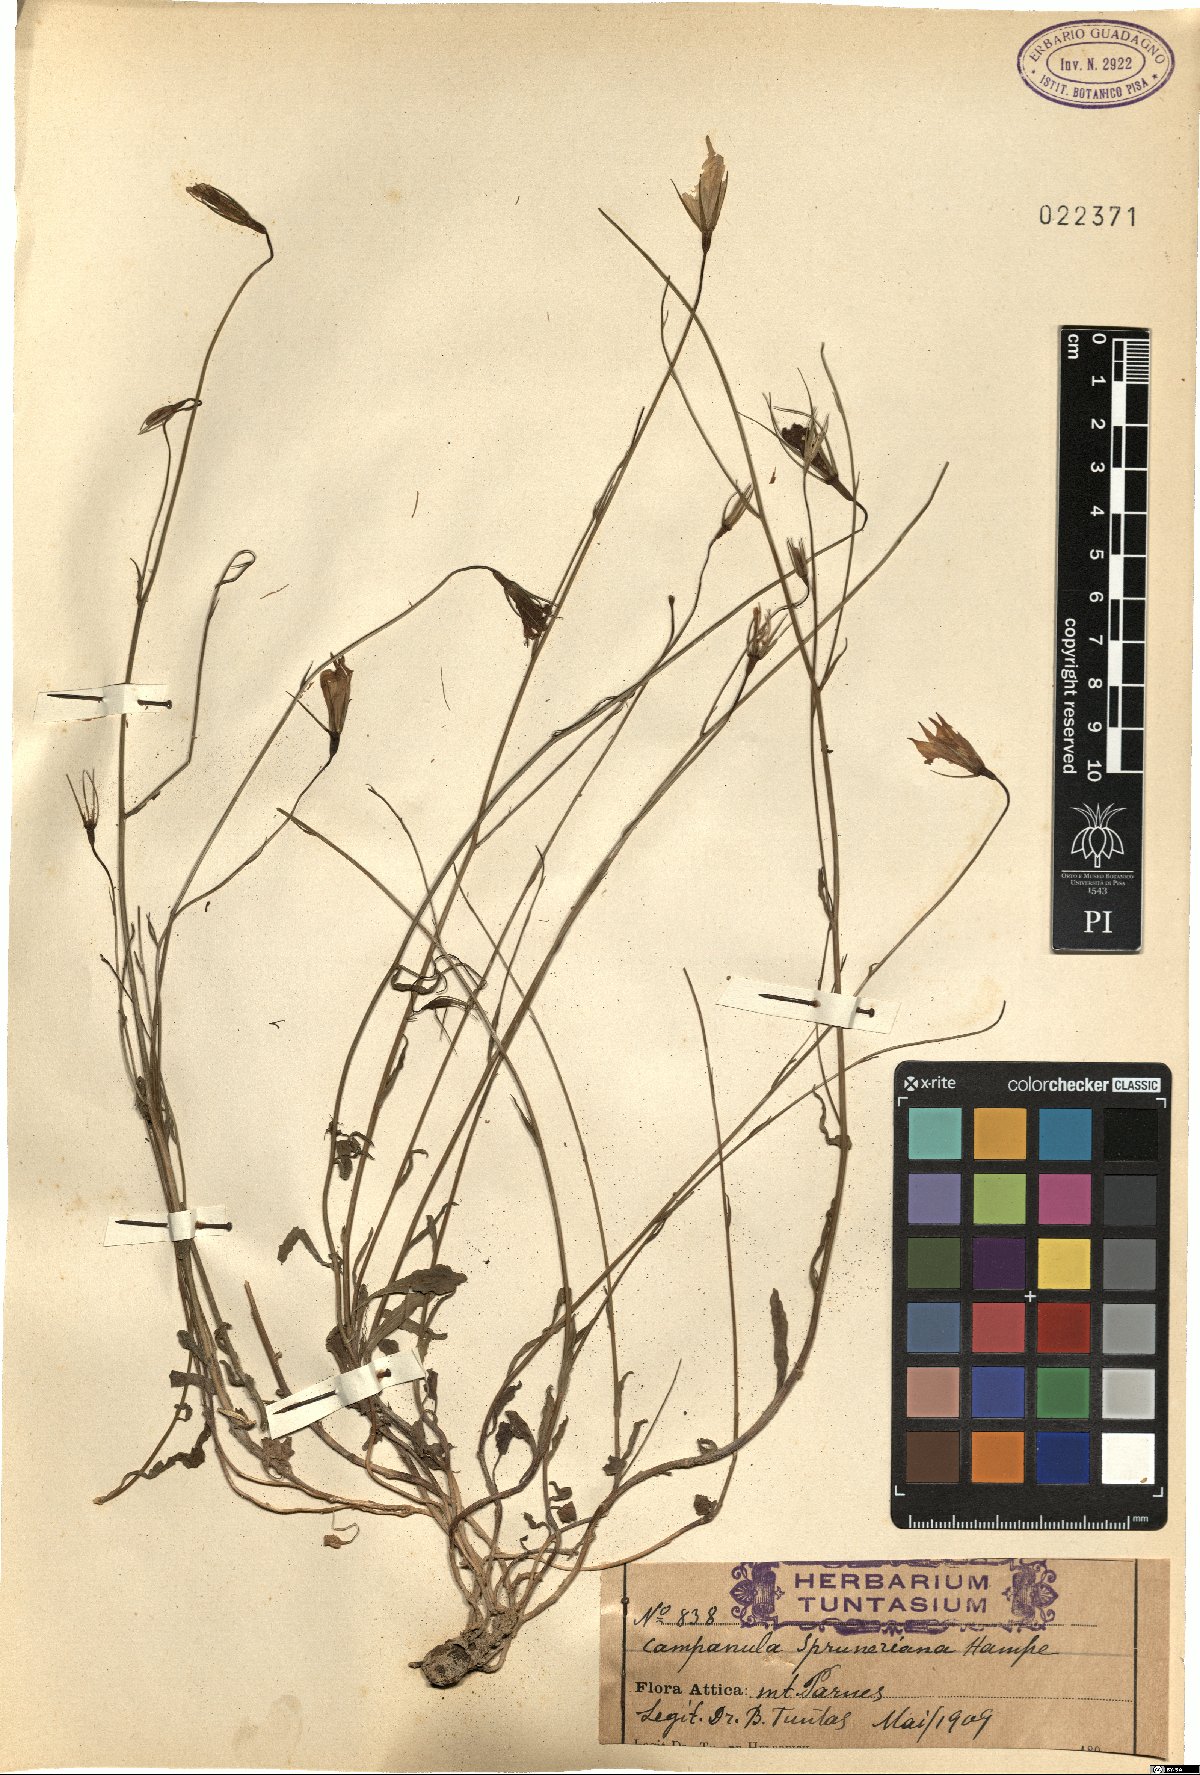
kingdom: Plantae
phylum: Tracheophyta
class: Magnoliopsida
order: Asterales
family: Campanulaceae
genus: Campanula
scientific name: Campanula spatulata
